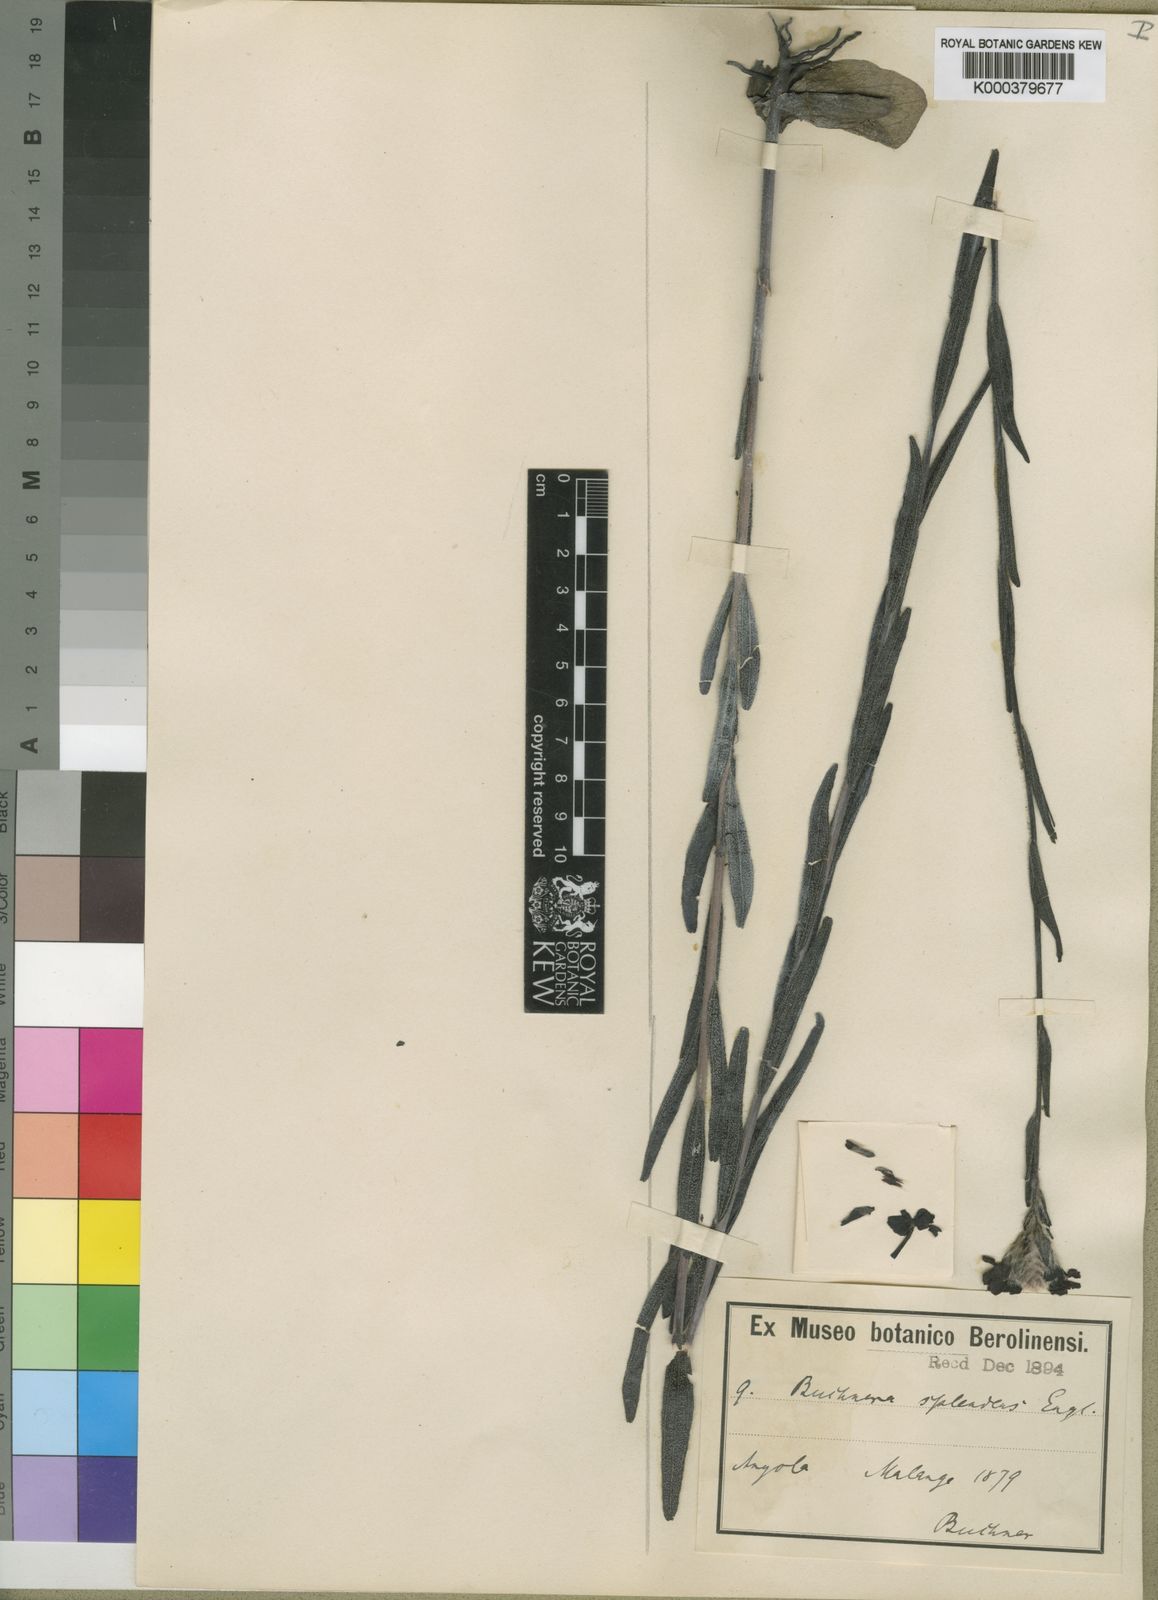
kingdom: Plantae
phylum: Tracheophyta
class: Magnoliopsida
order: Lamiales
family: Orobanchaceae
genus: Buchnera
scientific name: Buchnera splendens
